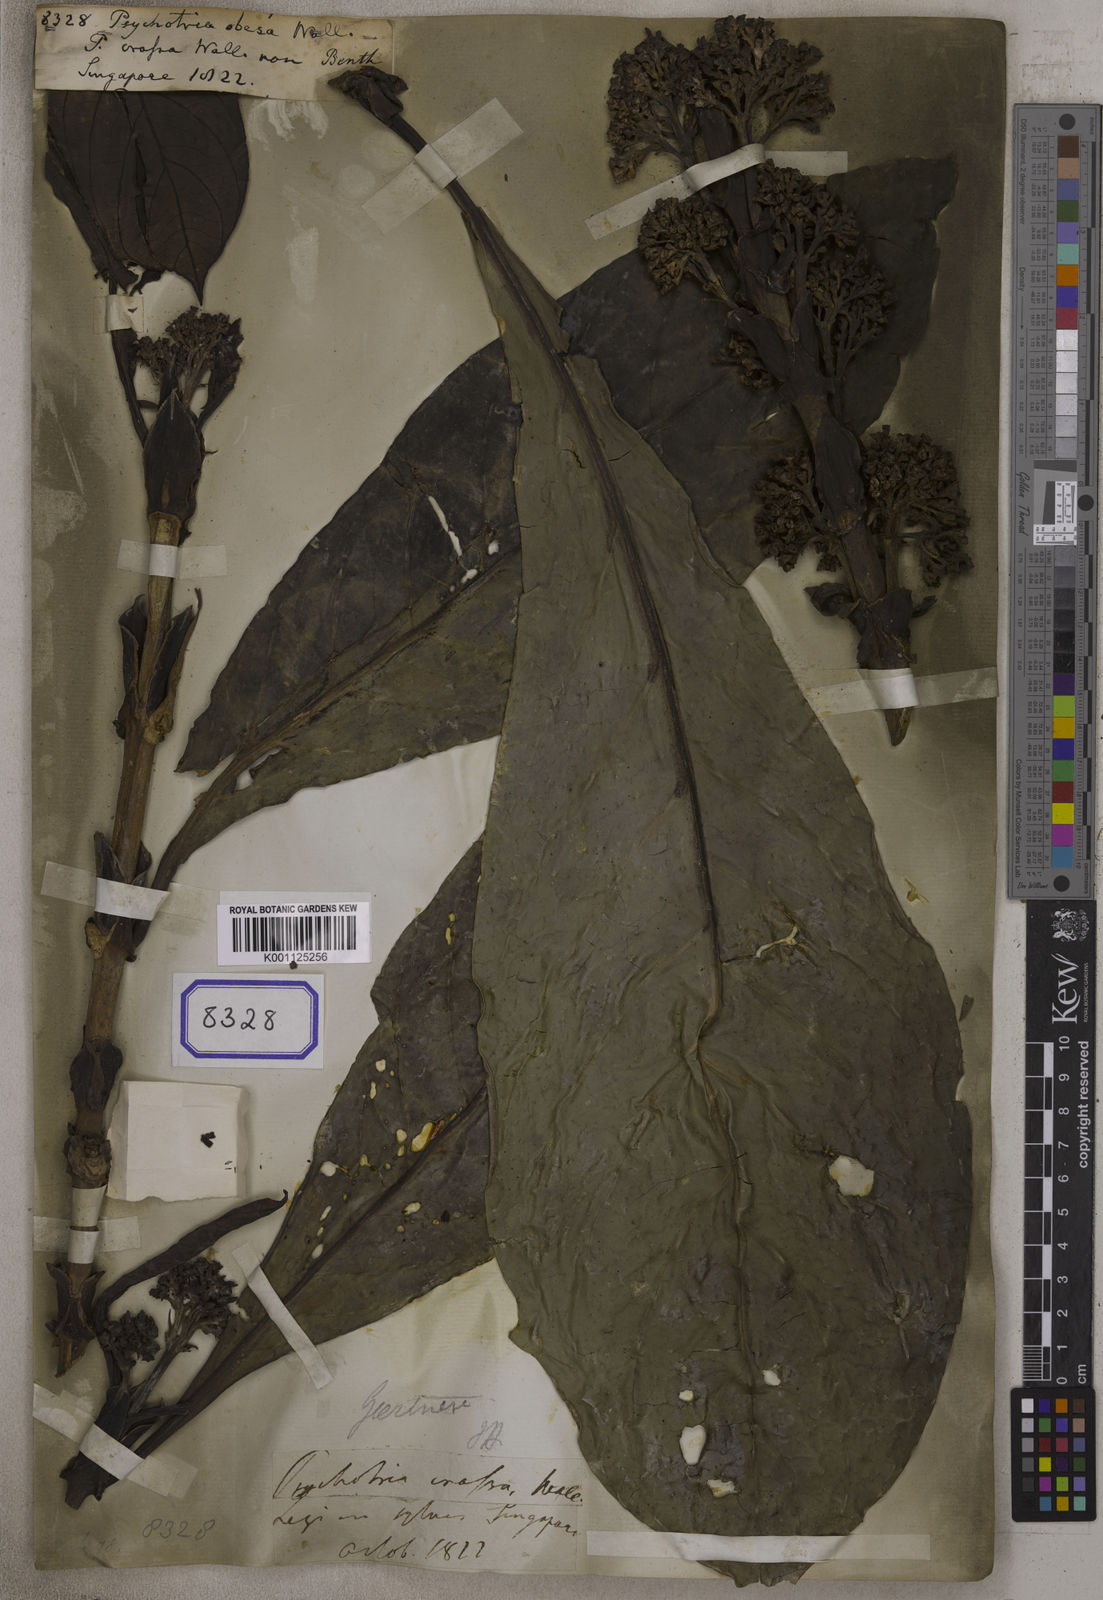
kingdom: Plantae
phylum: Tracheophyta
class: Magnoliopsida
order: Gentianales
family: Rubiaceae
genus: Gaertnera
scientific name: Gaertnera obesa
